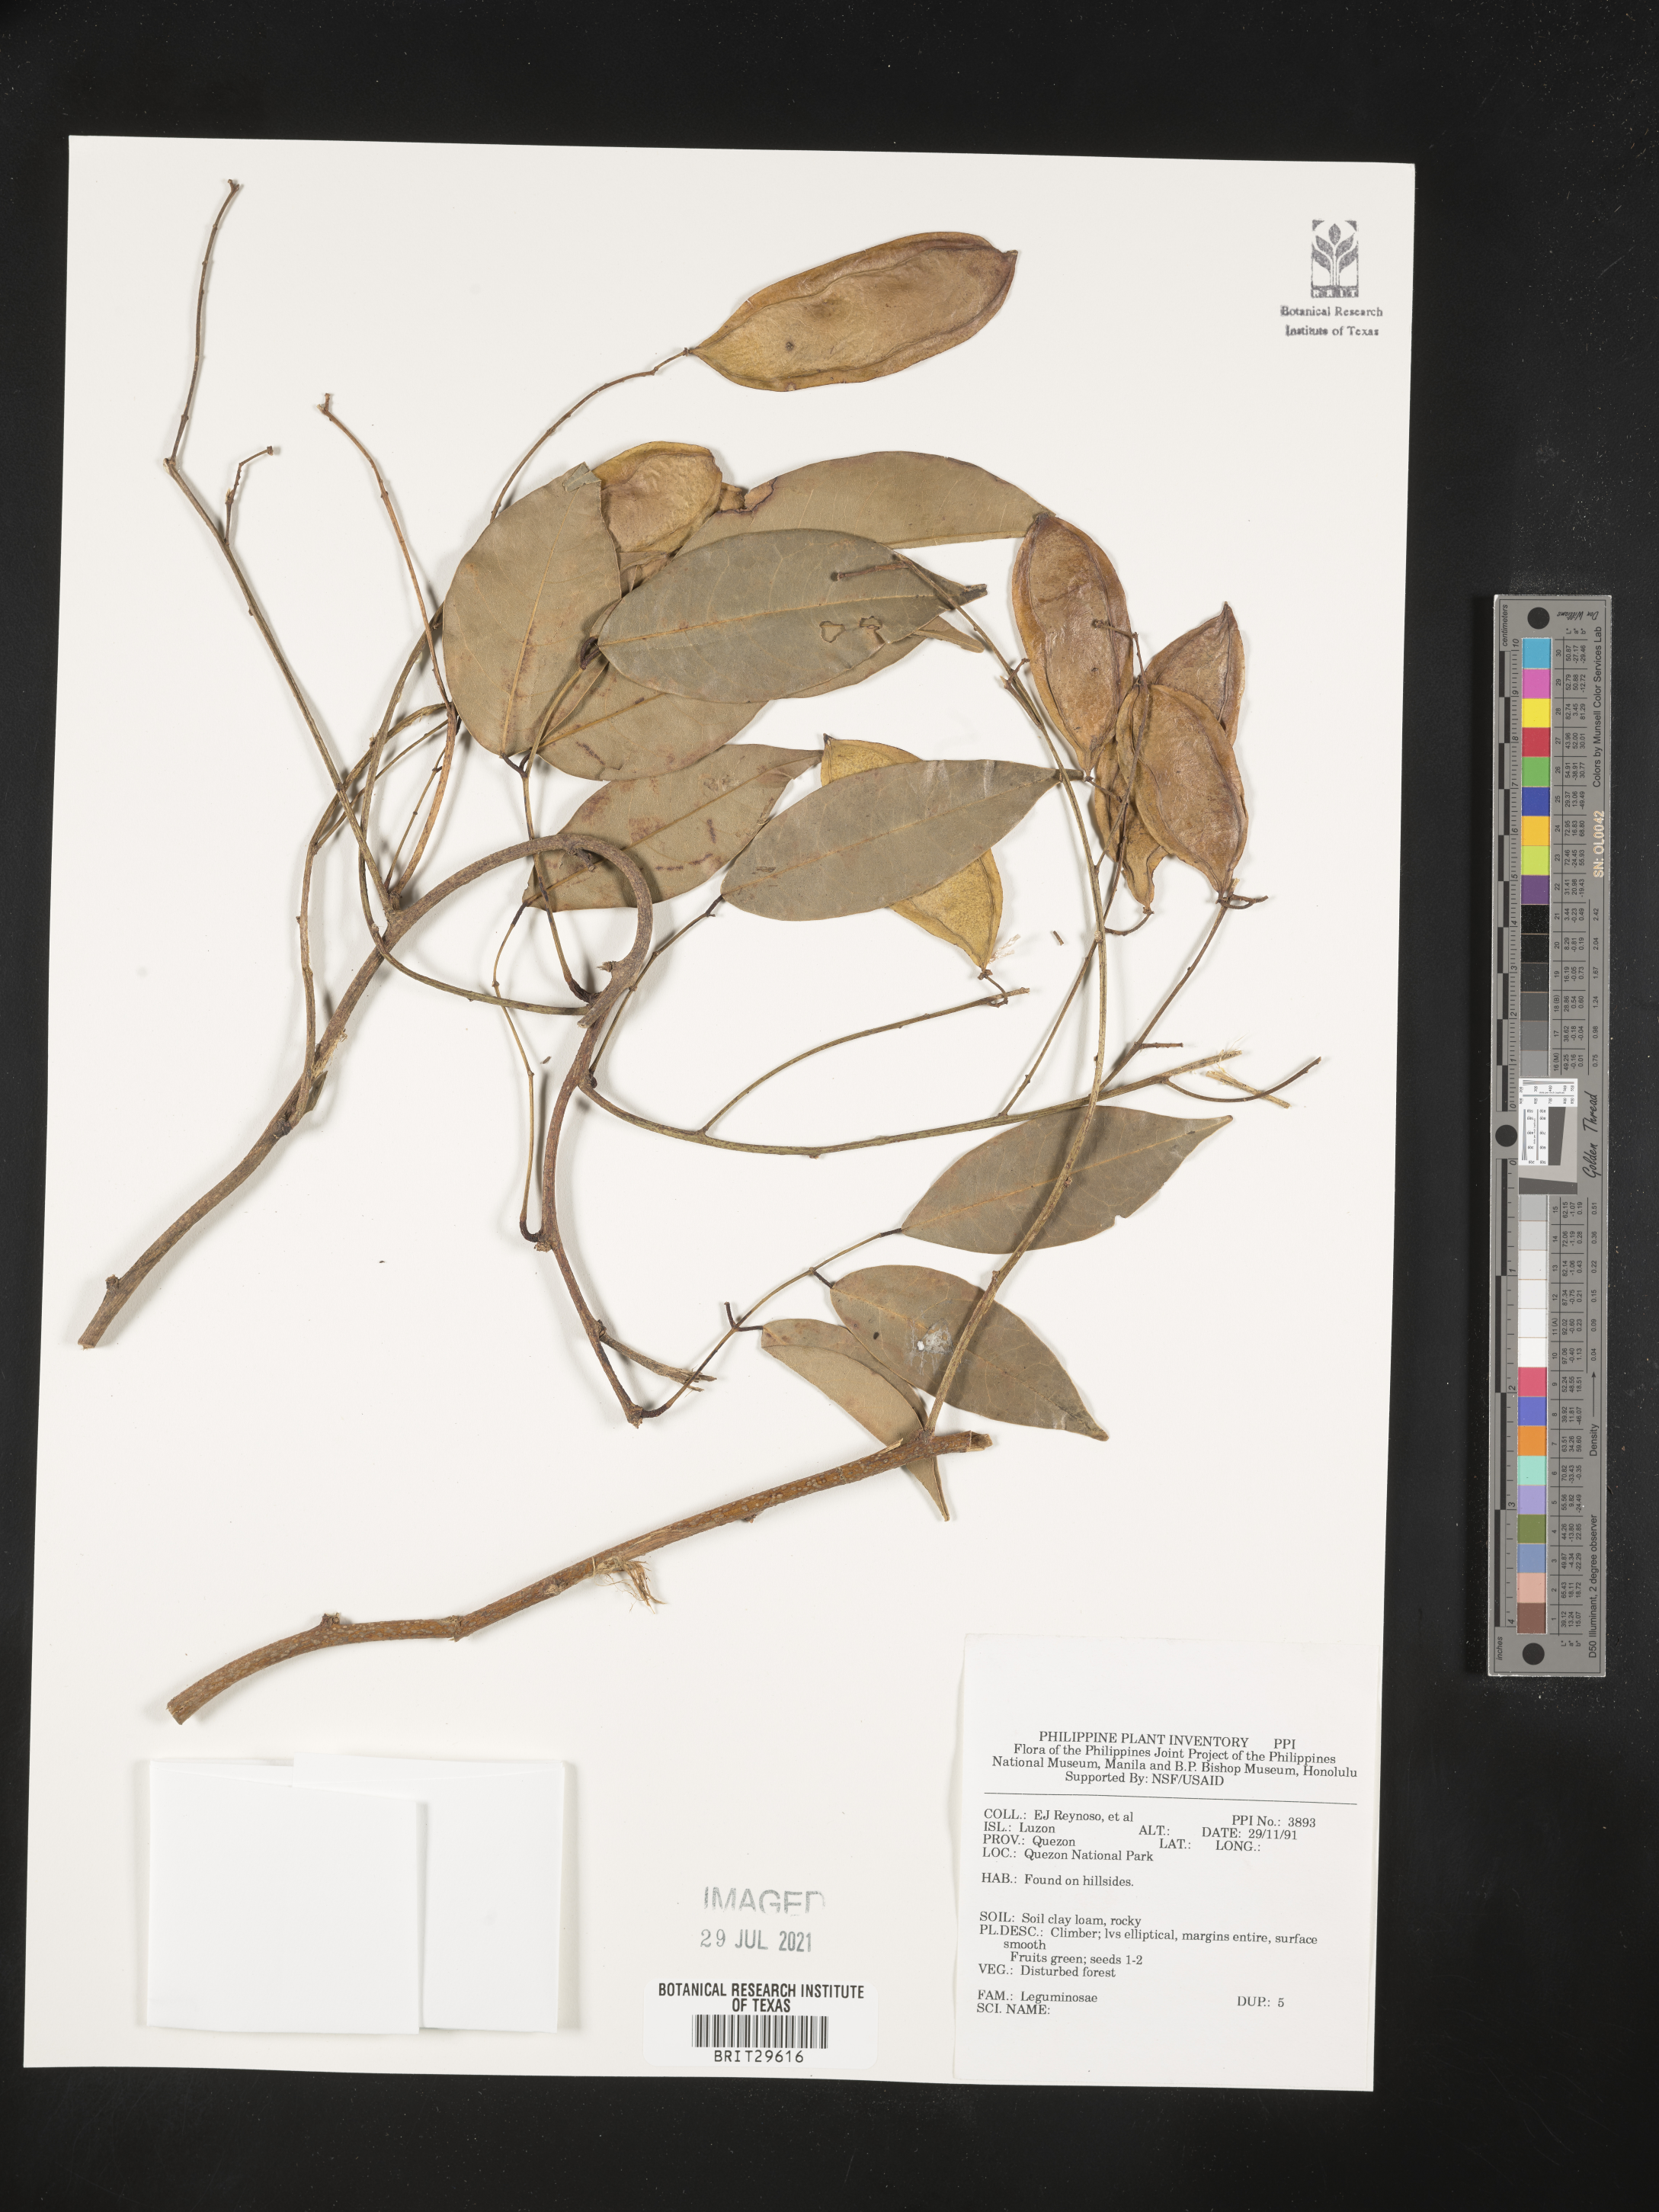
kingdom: Plantae
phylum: Tracheophyta
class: Magnoliopsida
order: Fabales
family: Fabaceae
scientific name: Fabaceae
